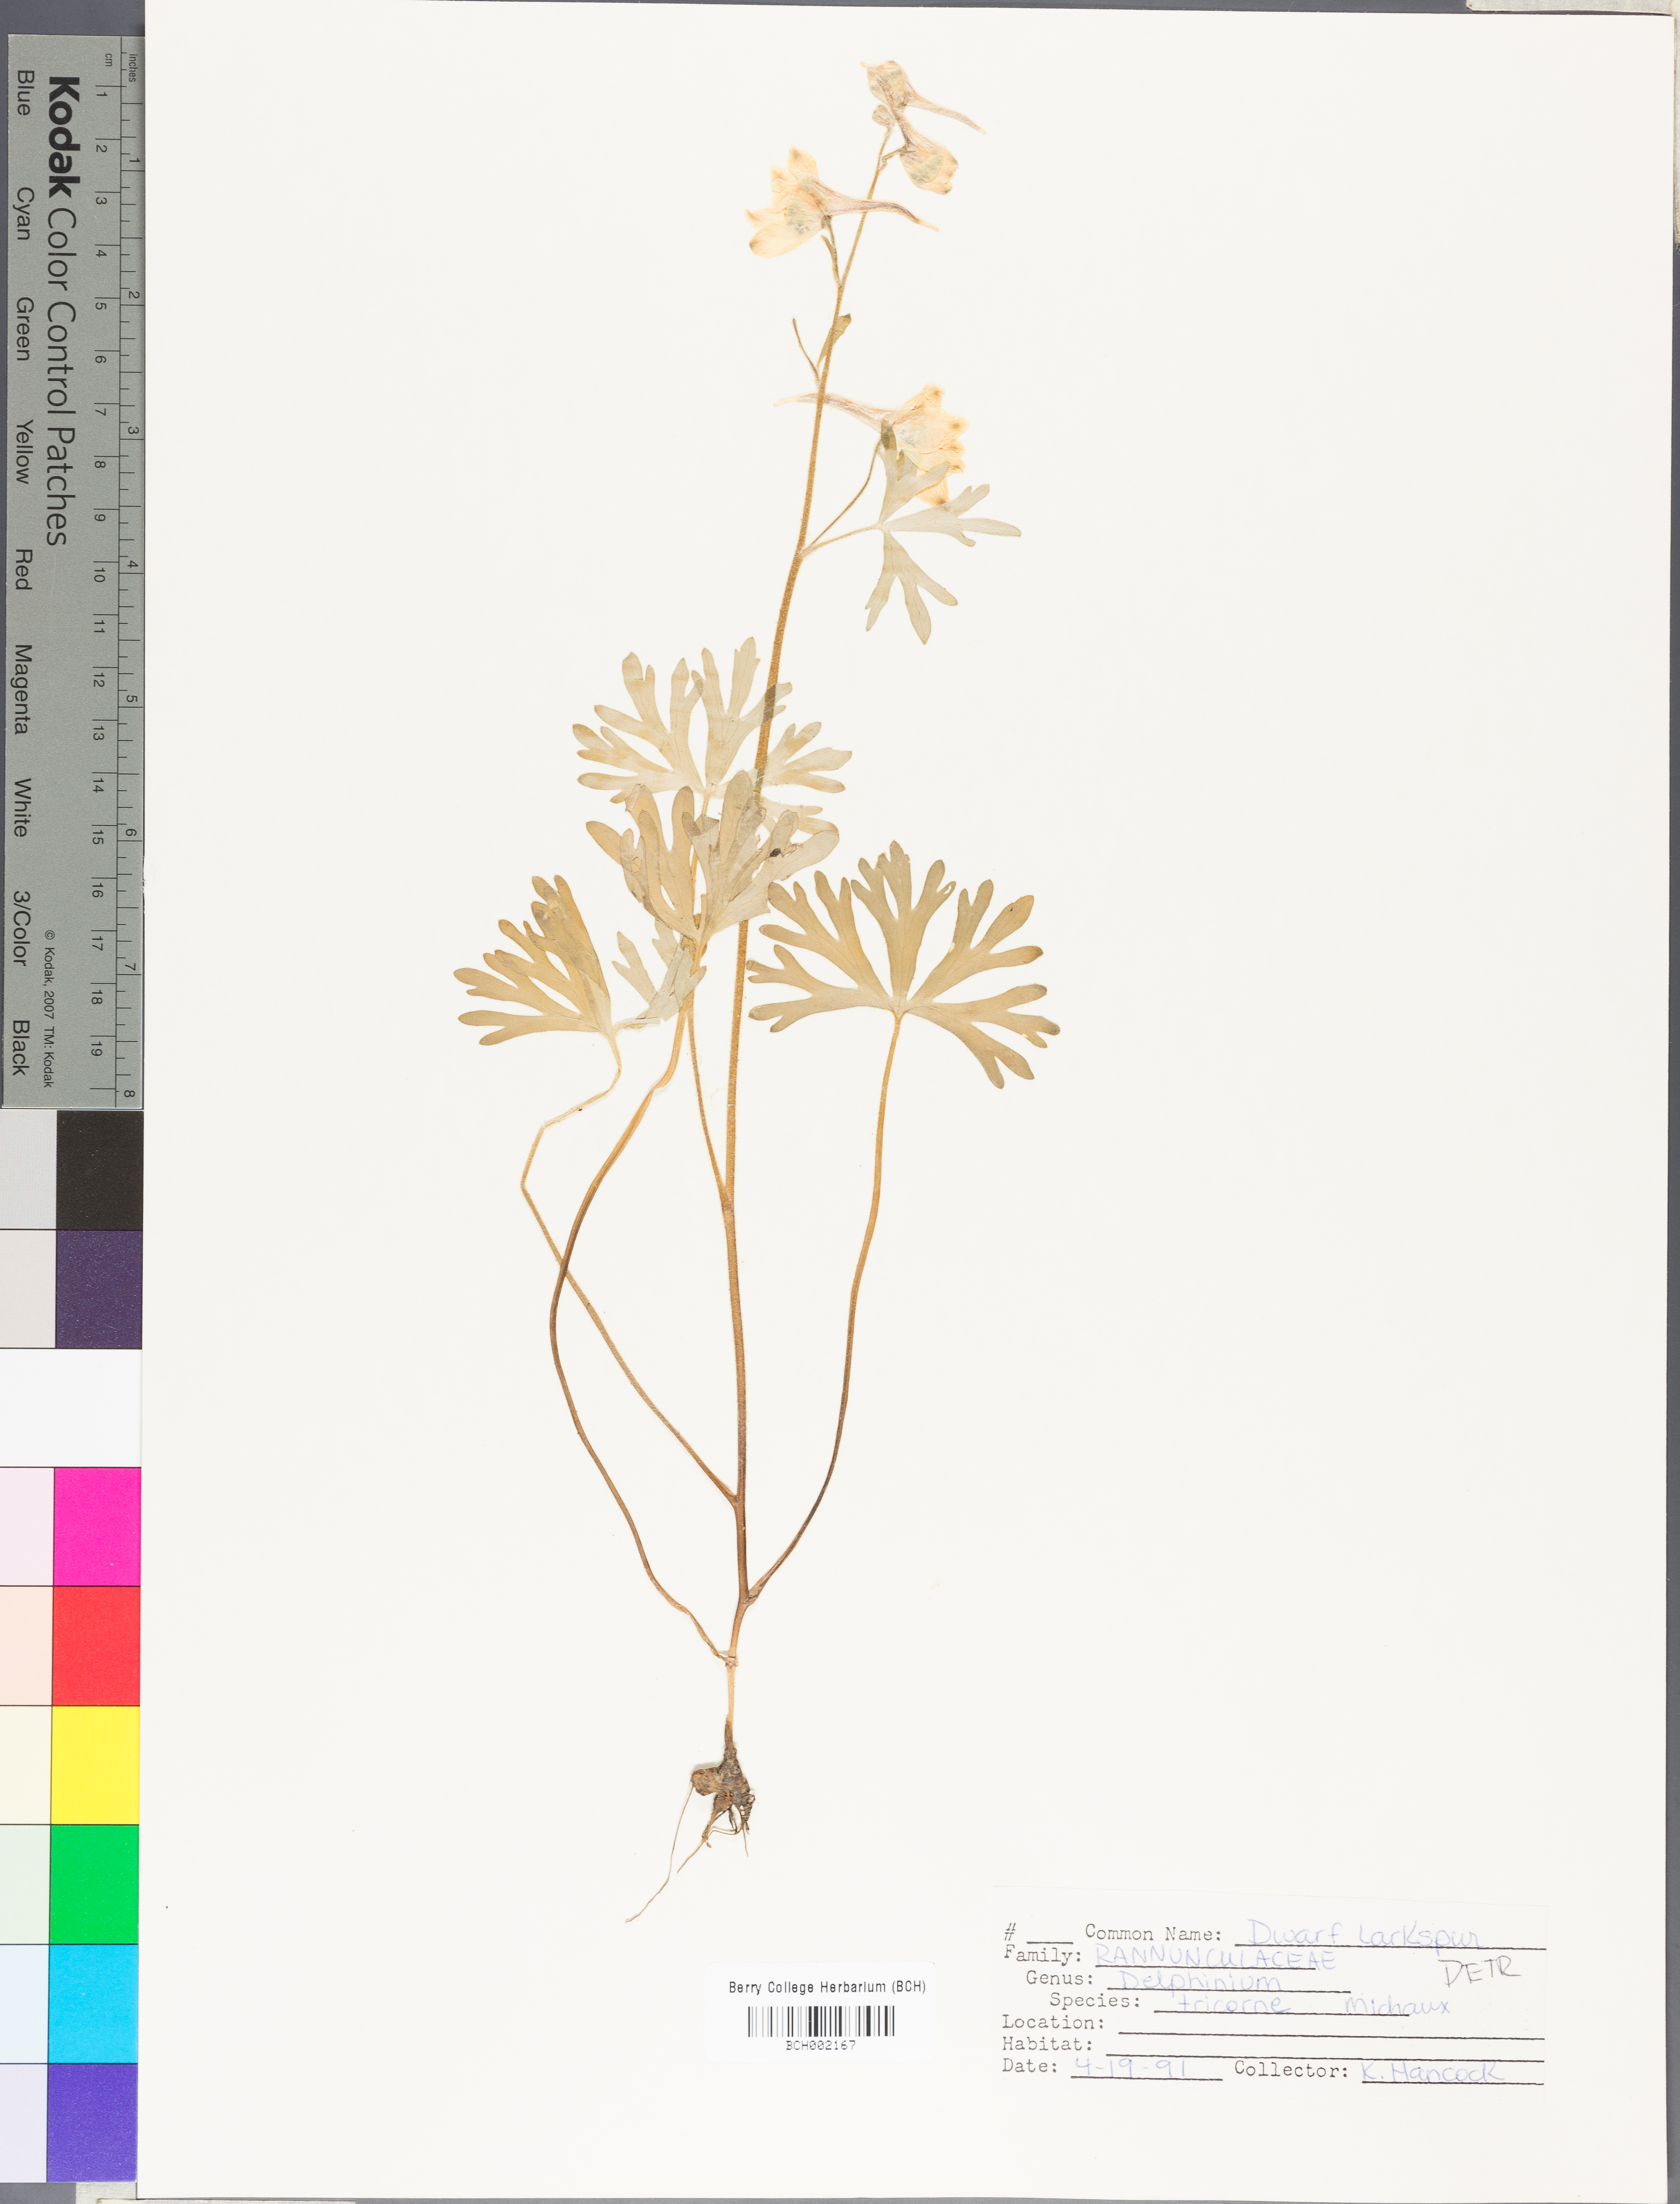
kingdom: Plantae
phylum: Tracheophyta
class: Magnoliopsida
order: Ranunculales
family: Ranunculaceae
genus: Delphinium
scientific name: Delphinium tricorne
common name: Dwarf larkspur
